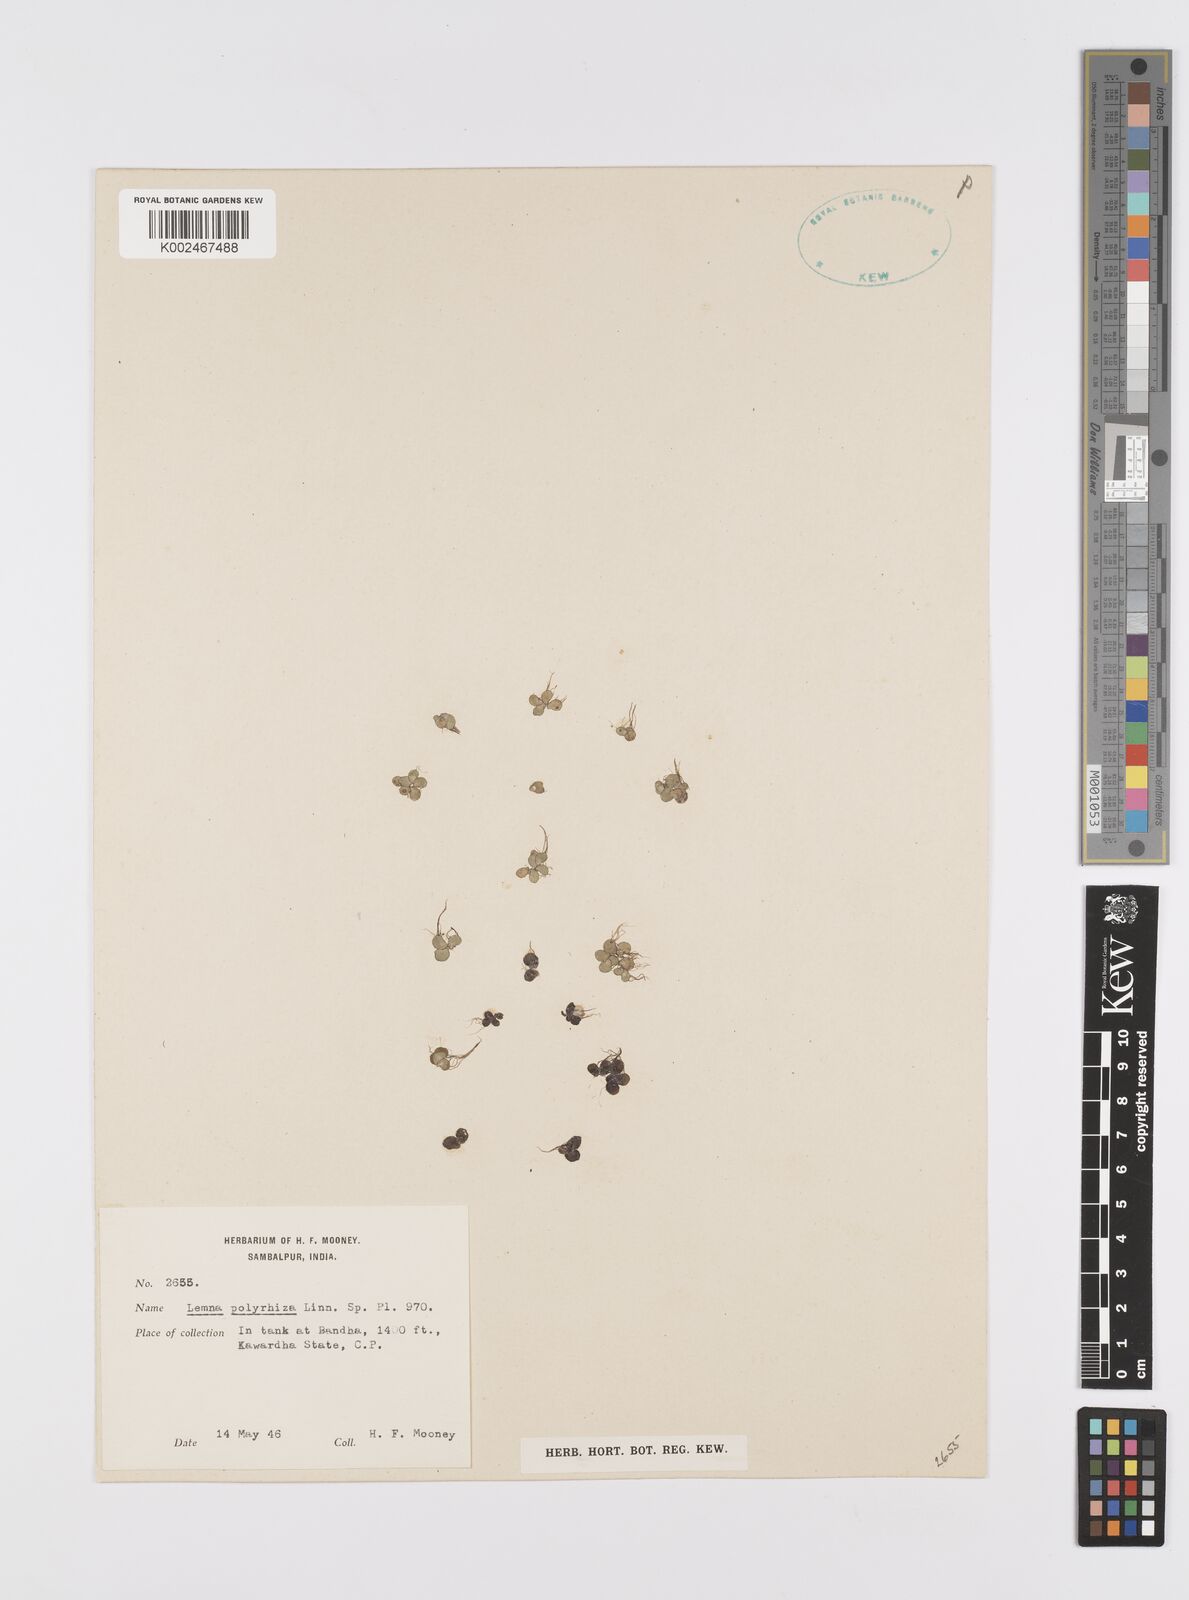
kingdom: Plantae
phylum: Tracheophyta
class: Liliopsida
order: Alismatales
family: Araceae
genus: Spirodela
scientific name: Spirodela polyrhiza
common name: Great duckweed
